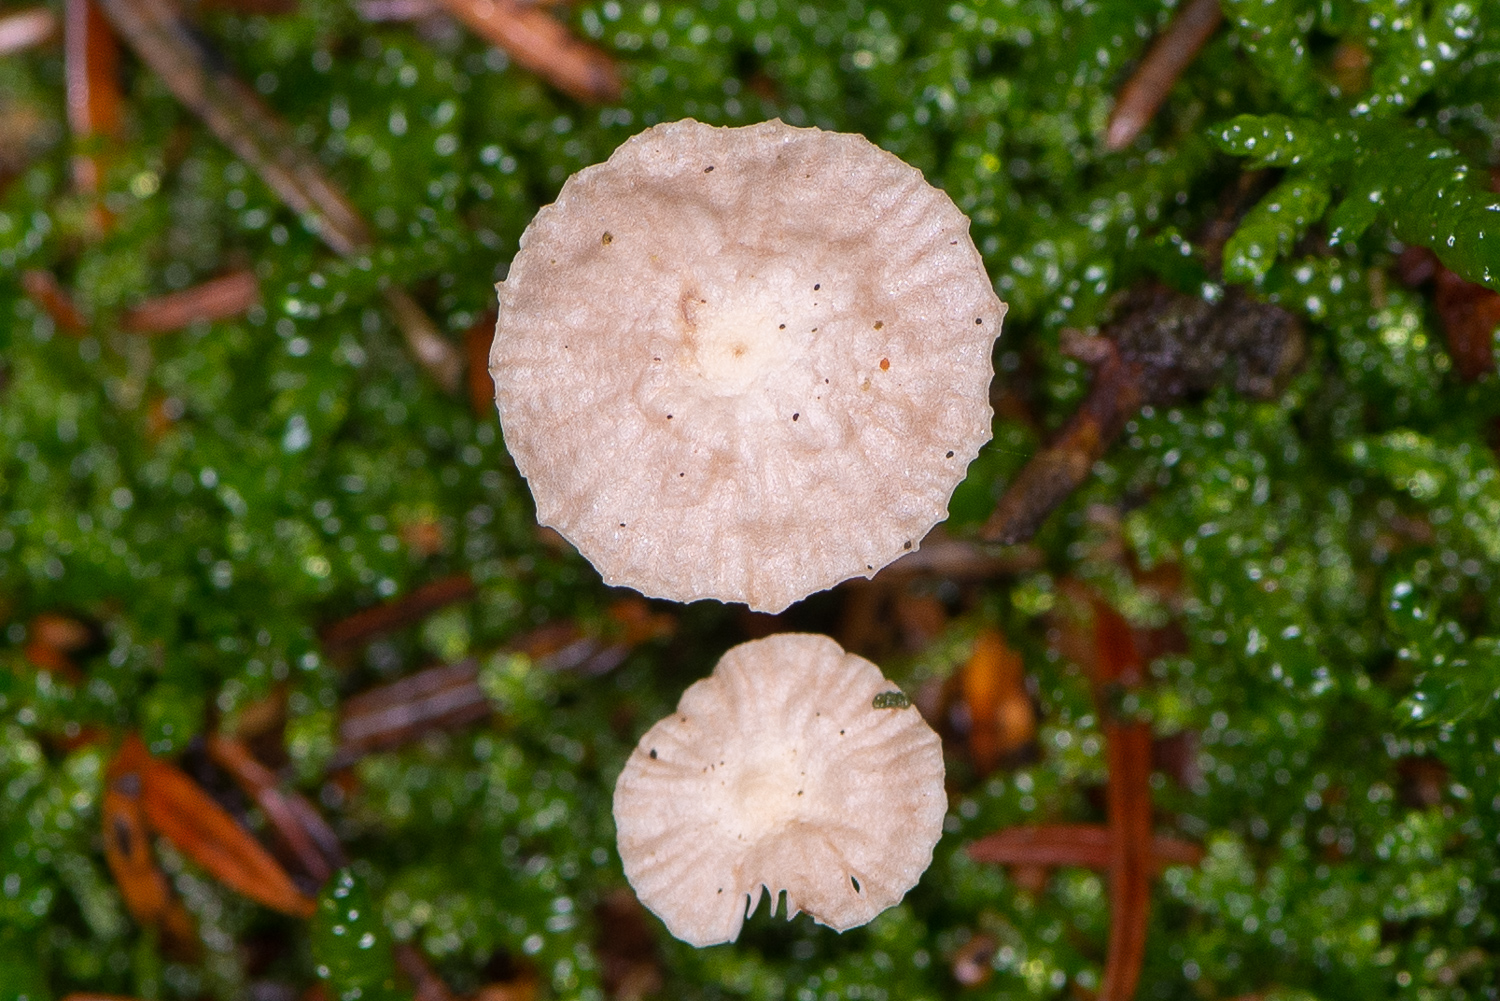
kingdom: Fungi
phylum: Basidiomycota
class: Agaricomycetes
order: Agaricales
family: Omphalotaceae
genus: Paragymnopus
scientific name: Paragymnopus perforans
